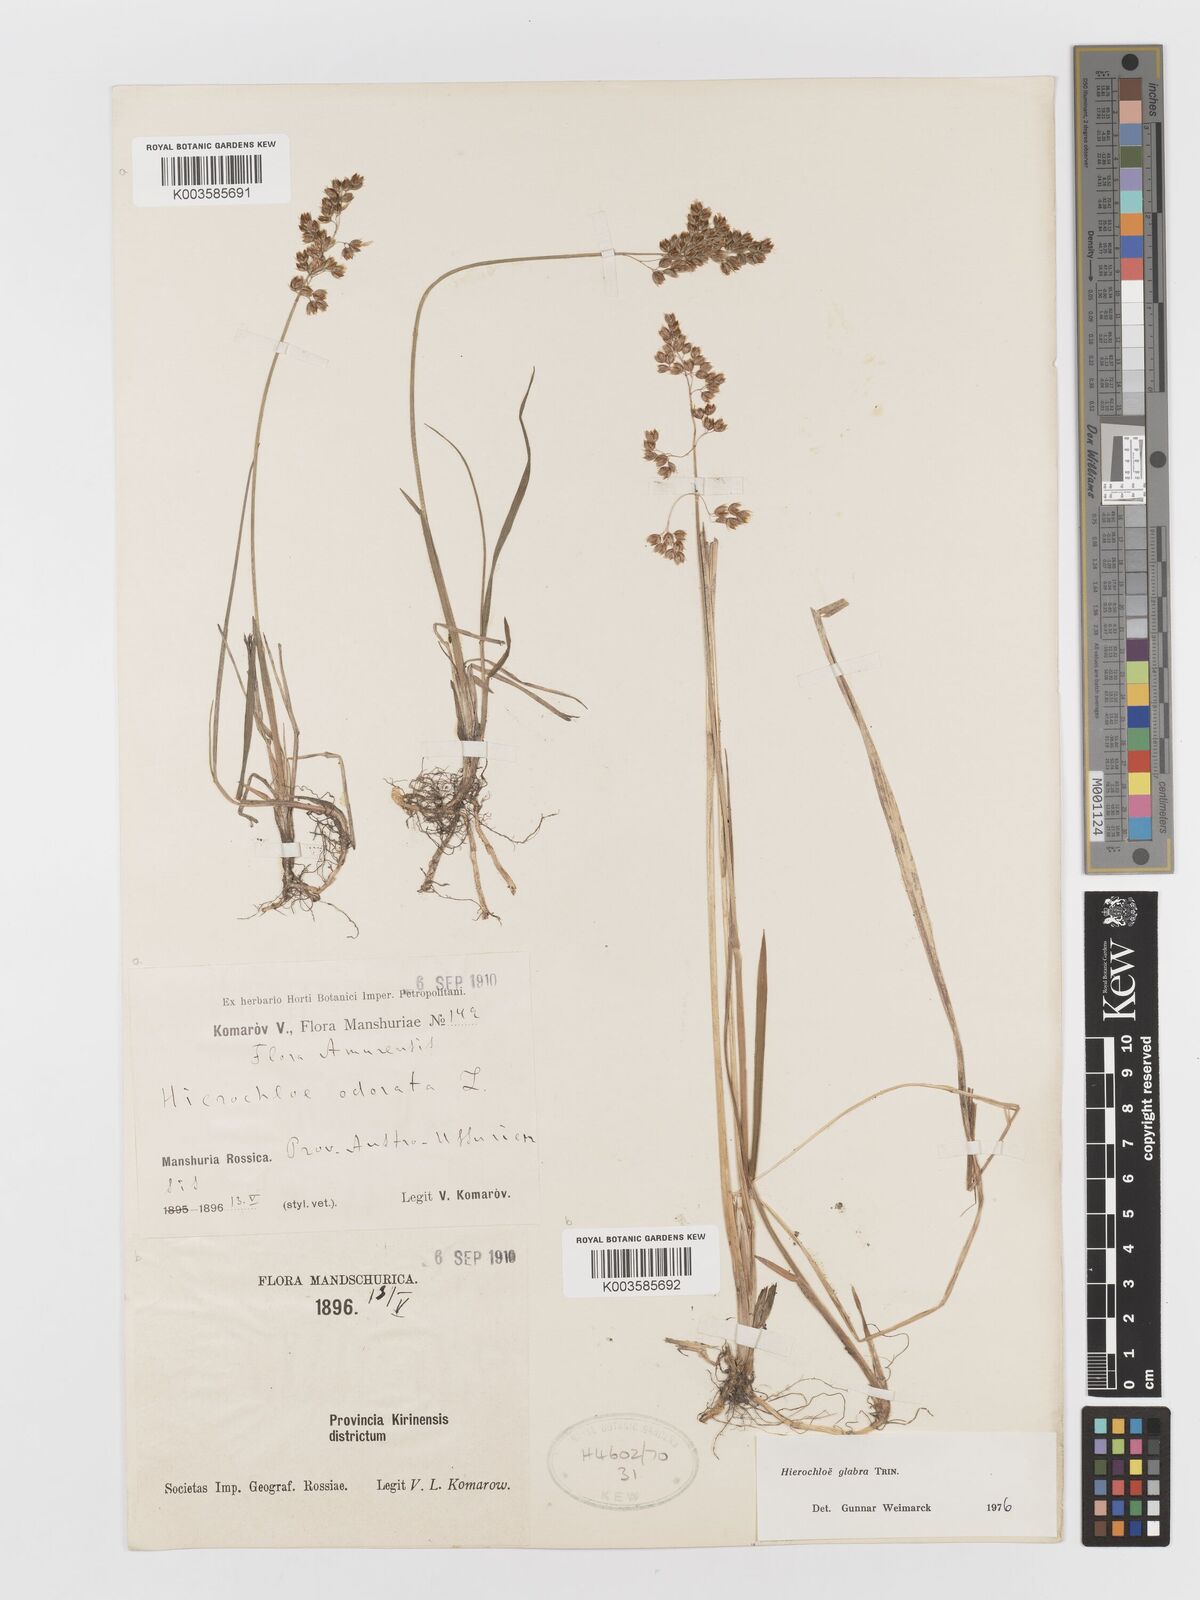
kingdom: Plantae
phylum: Tracheophyta
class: Liliopsida
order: Poales
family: Poaceae
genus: Anthoxanthum
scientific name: Anthoxanthum glabrum
